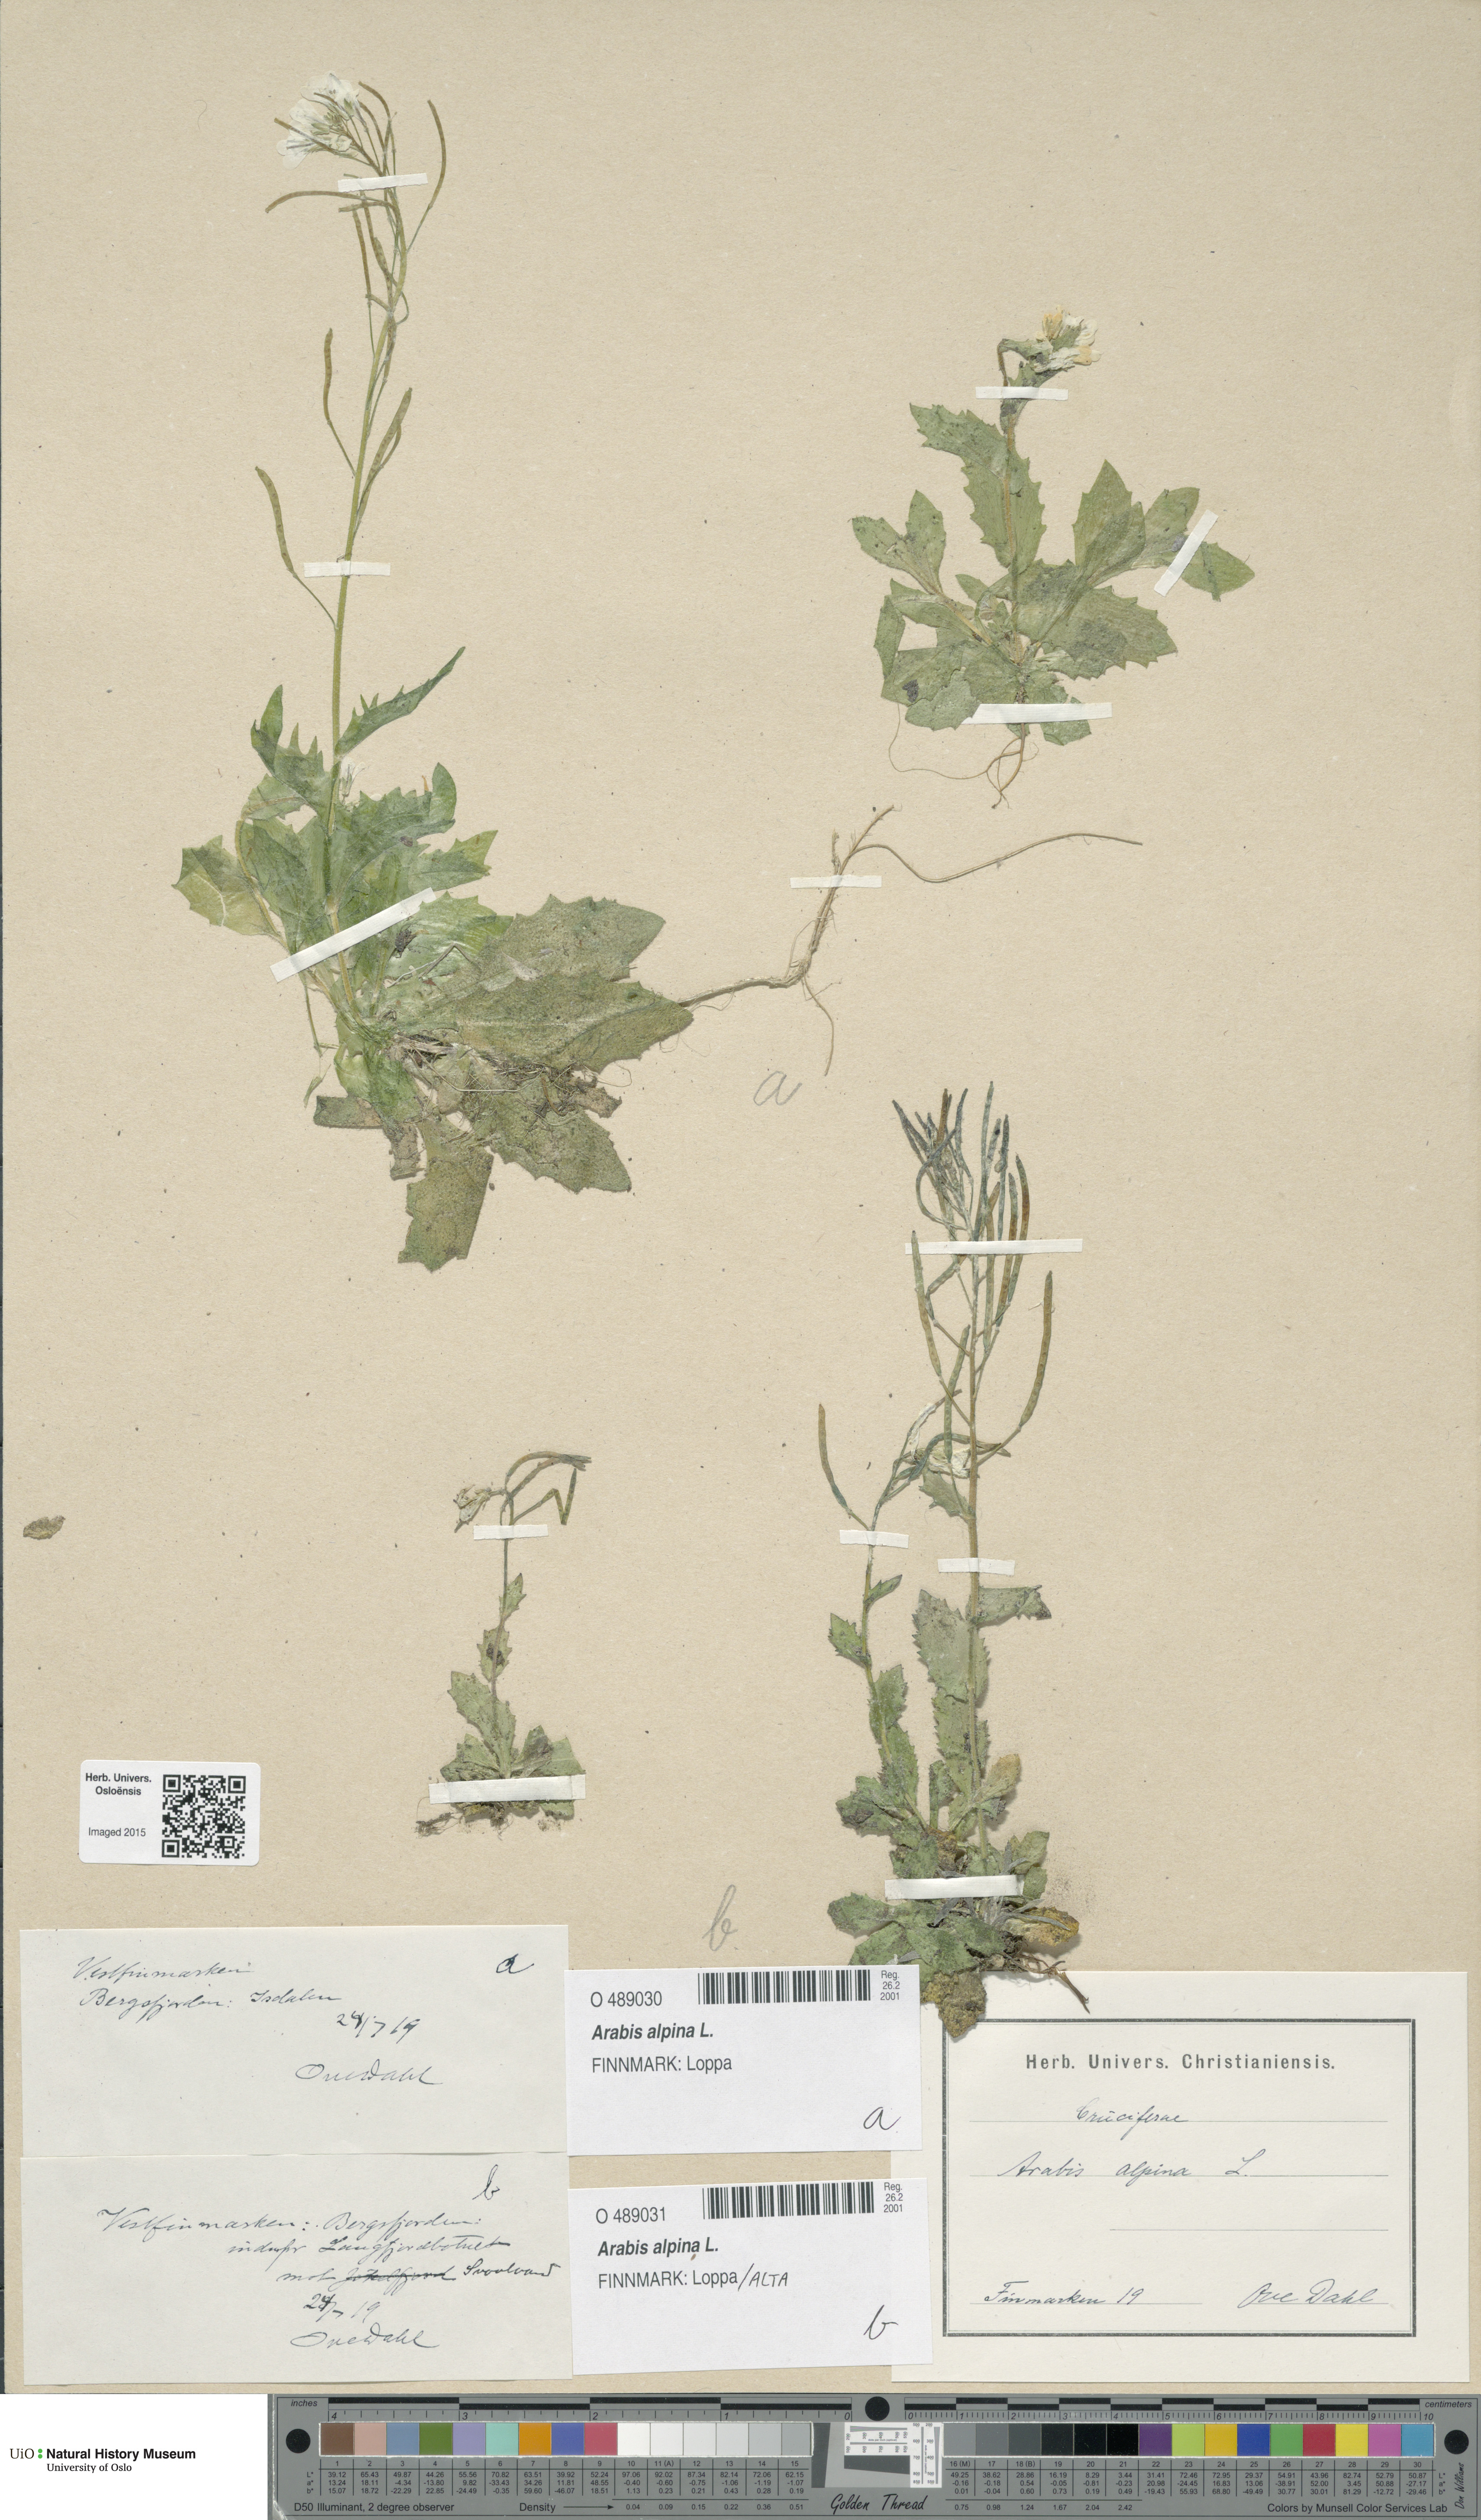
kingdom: Plantae
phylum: Tracheophyta
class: Magnoliopsida
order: Brassicales
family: Brassicaceae
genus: Arabis
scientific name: Arabis alpina
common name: Alpine rock-cress
